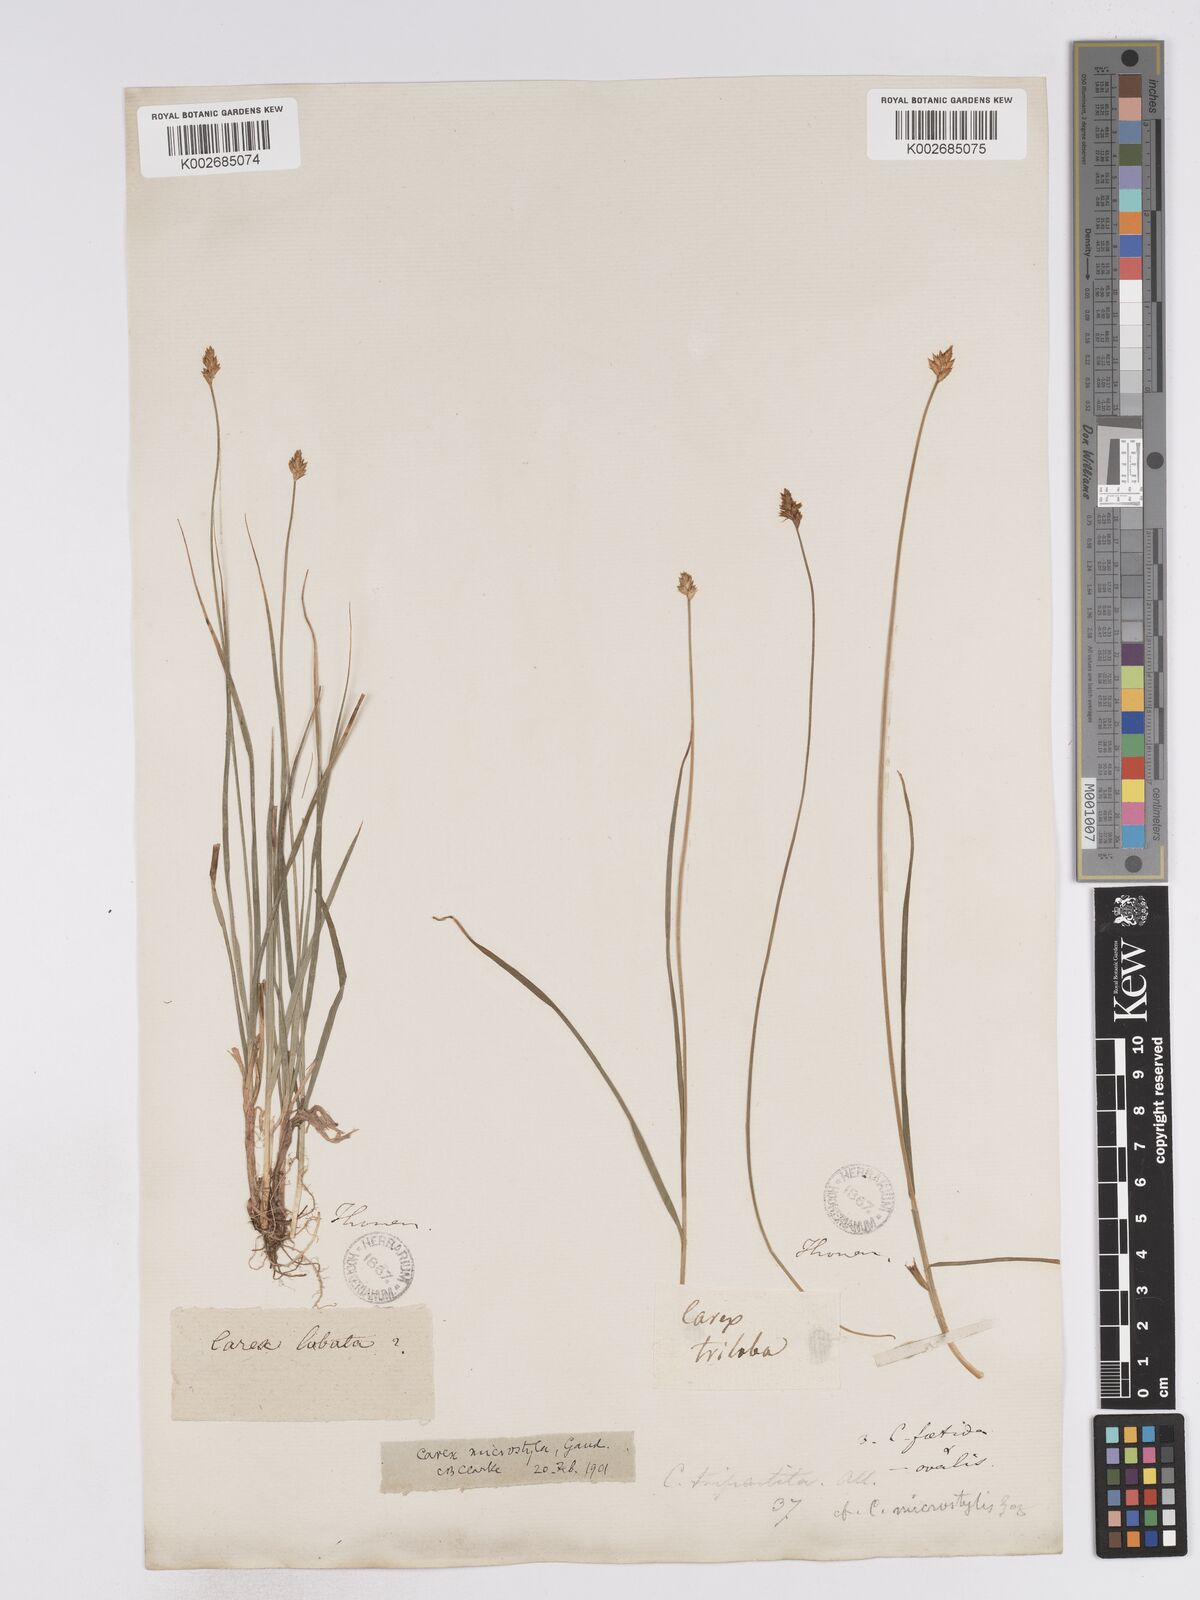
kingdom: Plantae
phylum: Tracheophyta
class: Liliopsida
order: Poales
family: Cyperaceae
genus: Carex
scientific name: Carex microstyla
